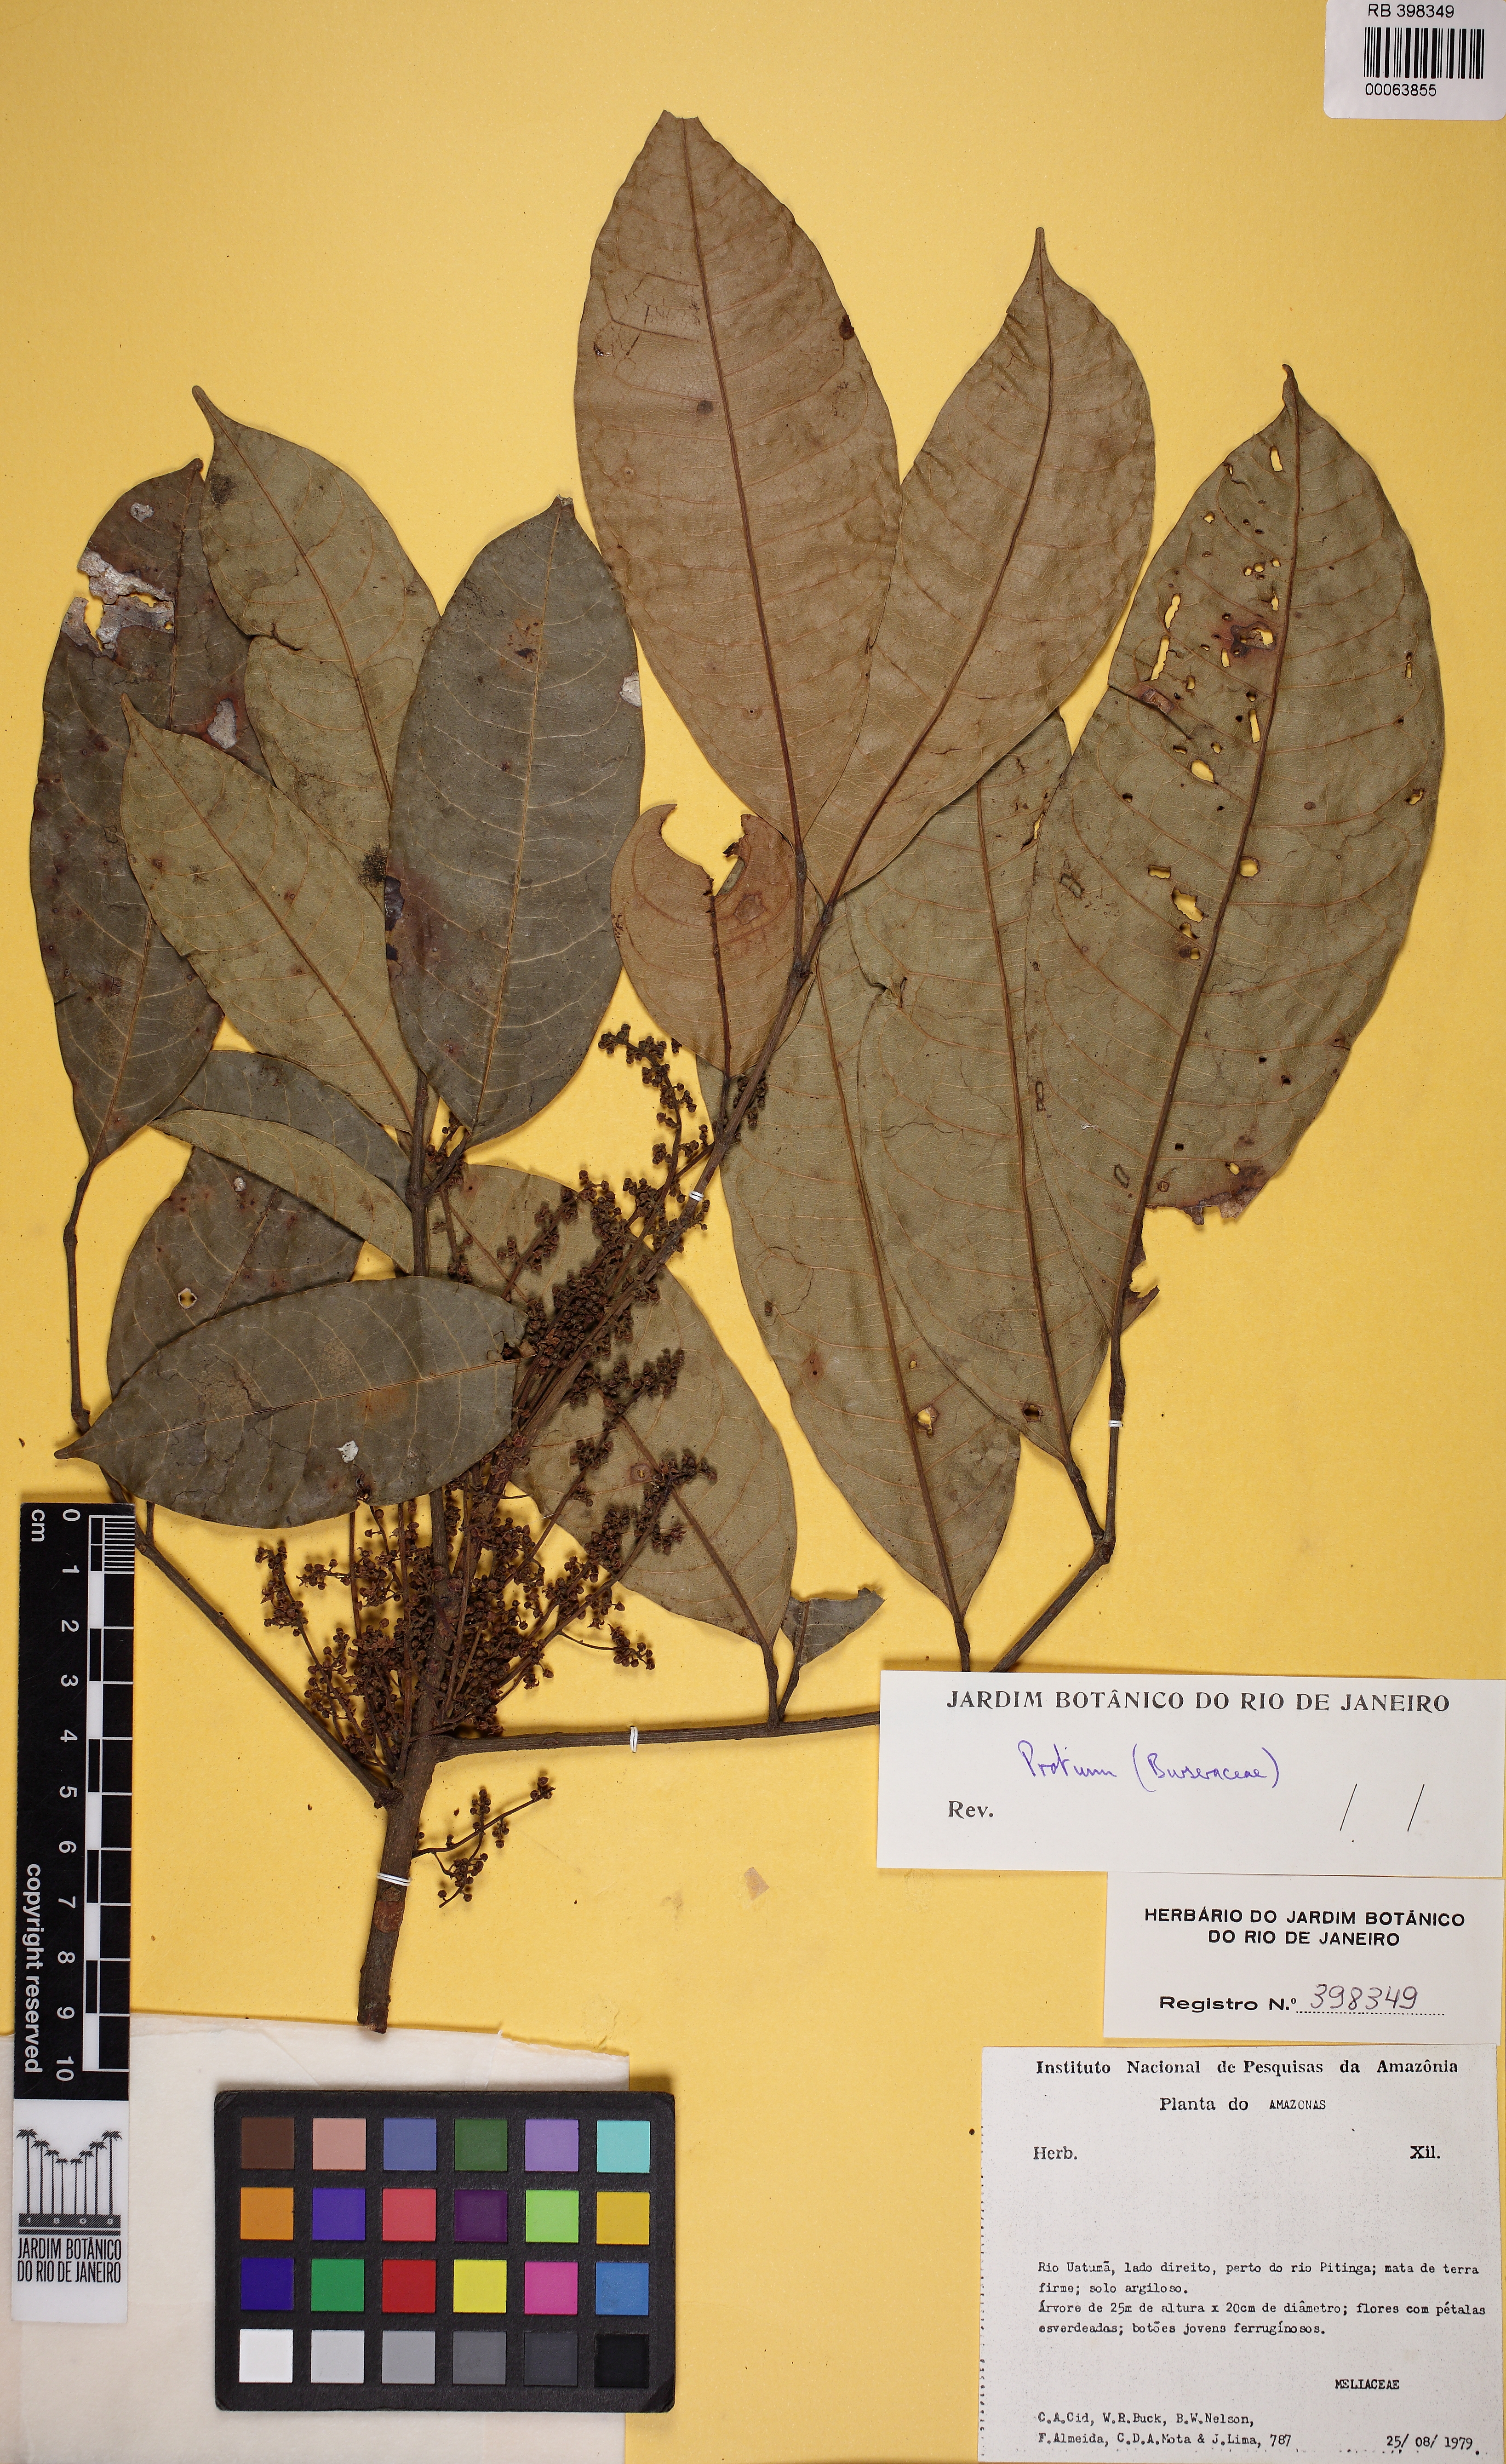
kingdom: Plantae
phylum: Tracheophyta
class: Magnoliopsida
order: Sapindales
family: Burseraceae
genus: Protium
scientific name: Protium grandifolium
